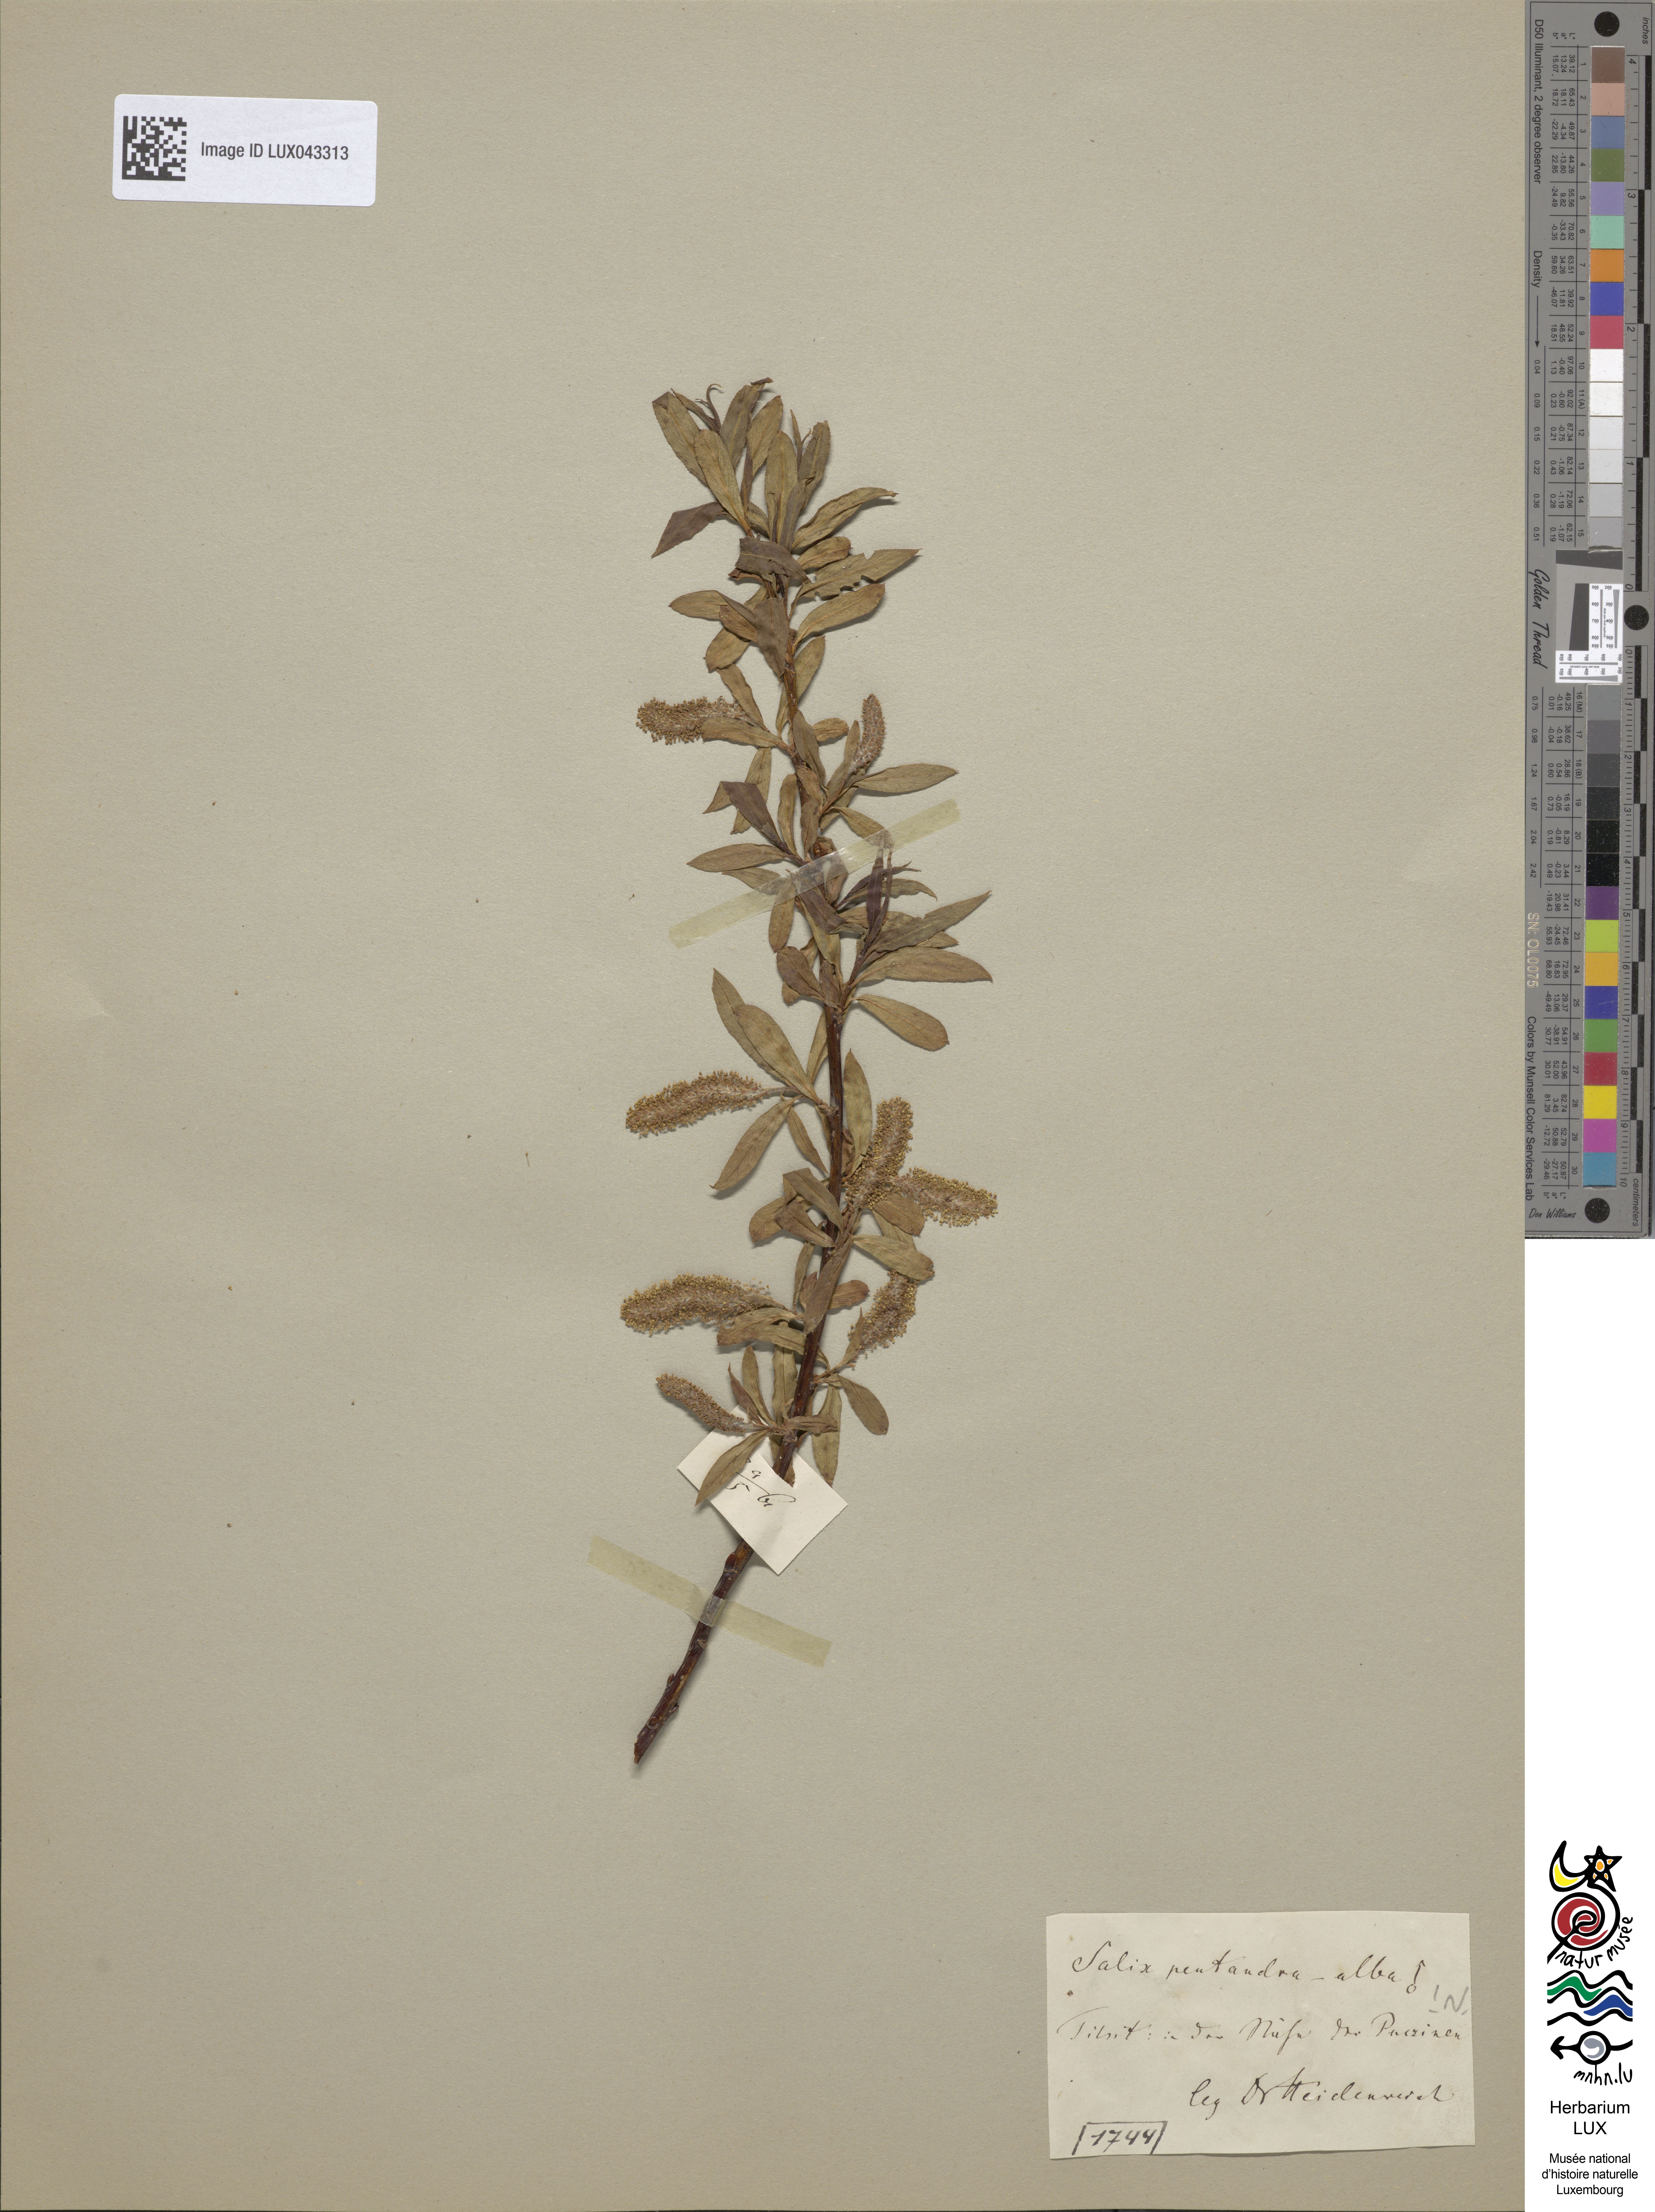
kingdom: Plantae
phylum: Tracheophyta
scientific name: Tracheophyta
